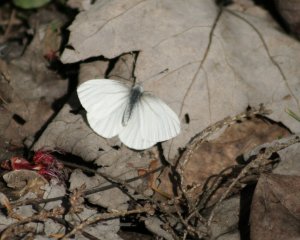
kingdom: Animalia
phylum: Arthropoda
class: Insecta
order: Lepidoptera
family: Pieridae
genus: Pieris
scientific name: Pieris oleracea
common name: Mustard White
